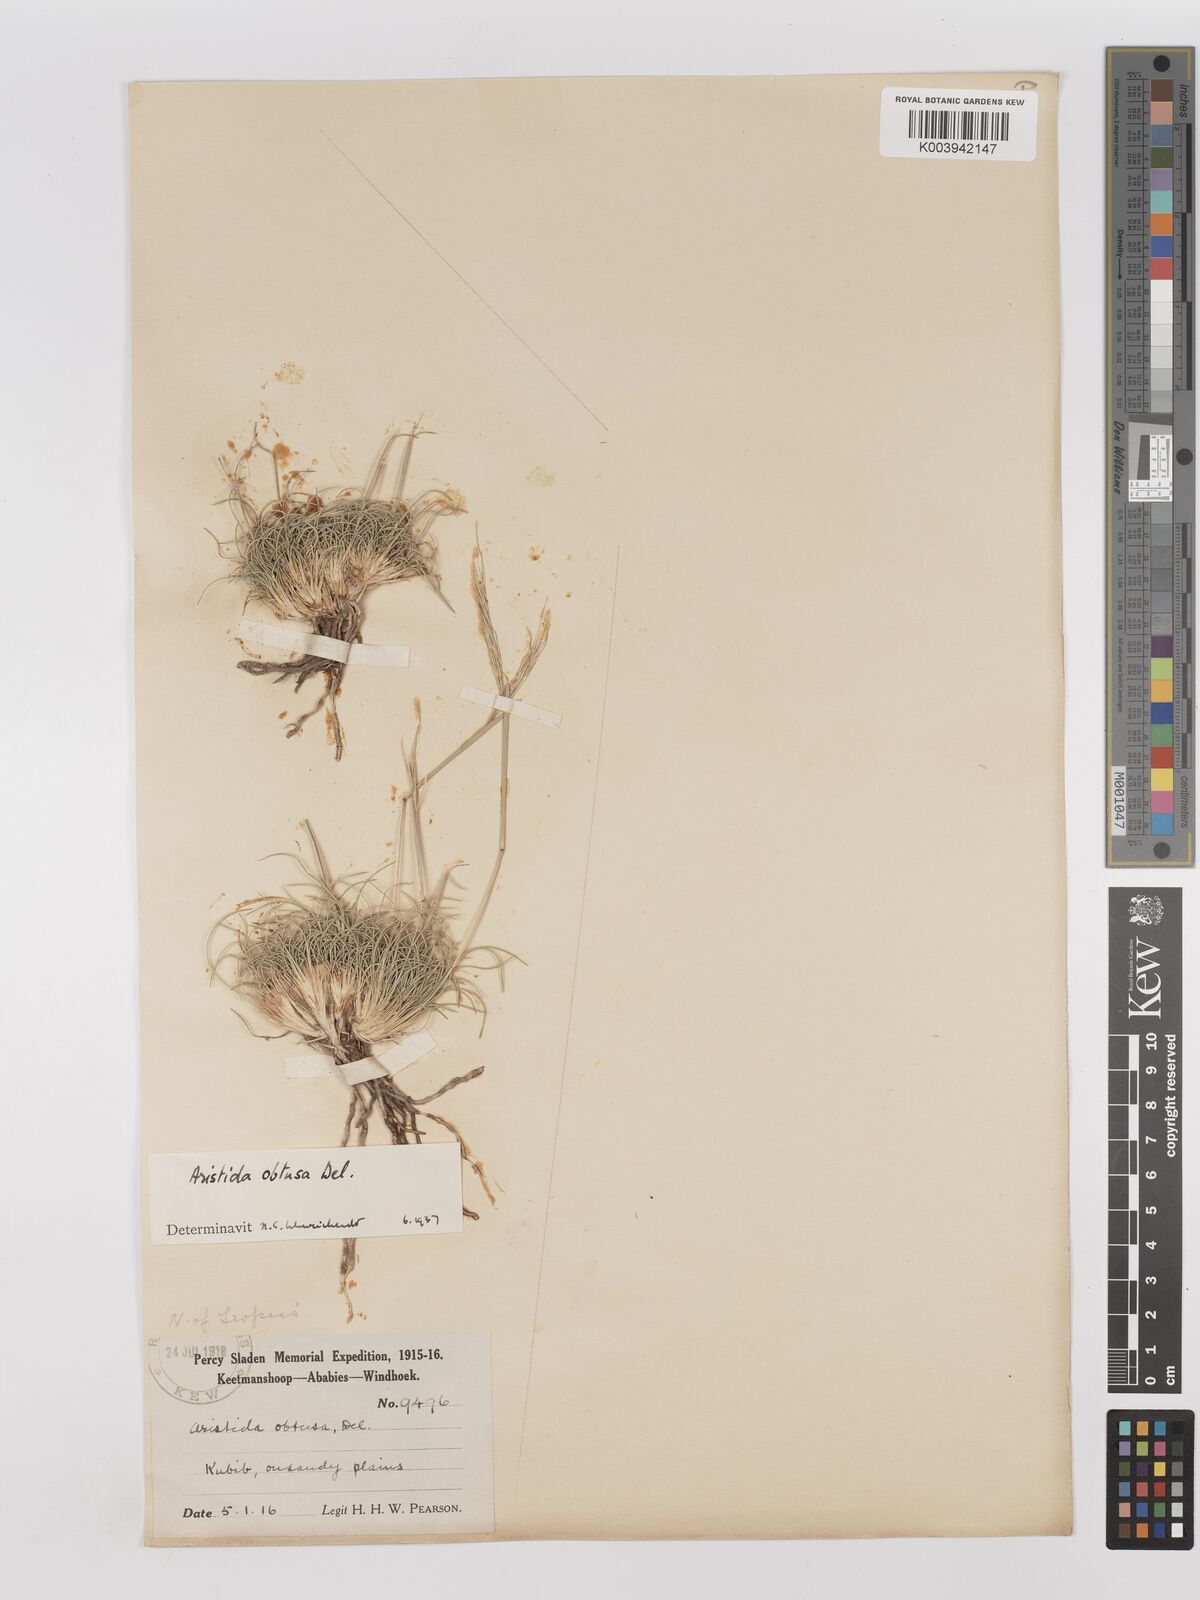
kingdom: Plantae
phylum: Tracheophyta
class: Liliopsida
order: Poales
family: Poaceae
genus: Stipagrostis
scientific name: Stipagrostis obtusa
